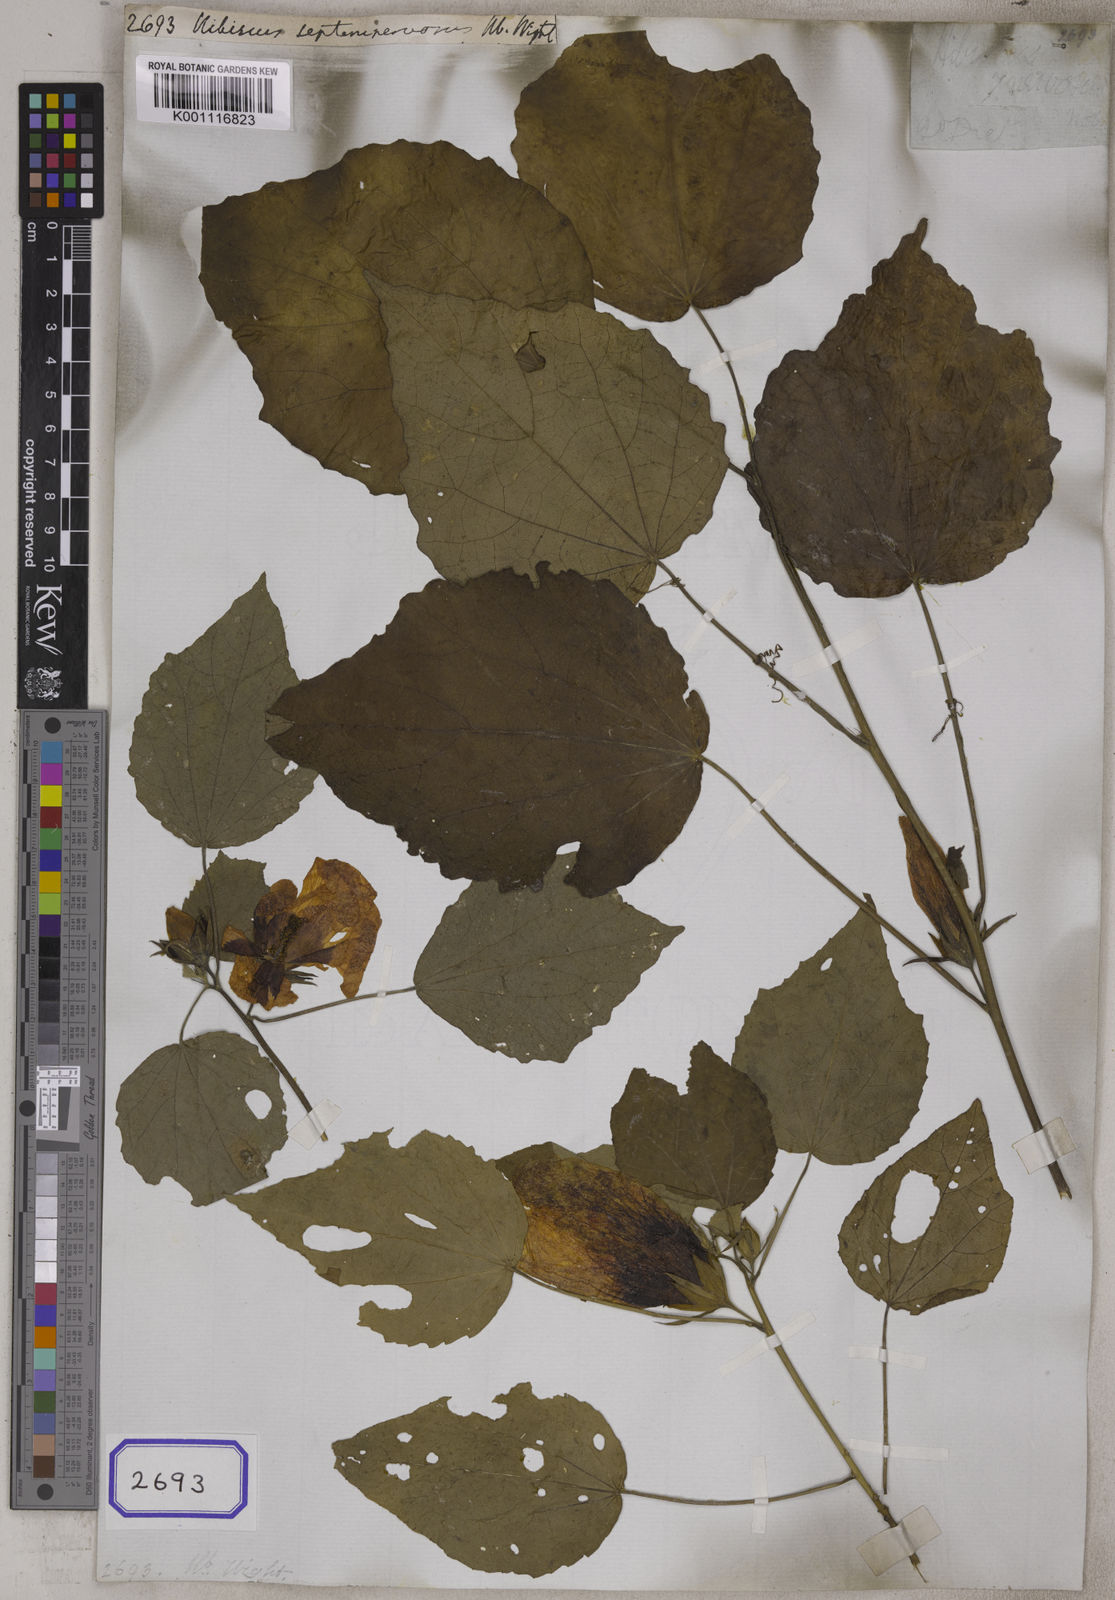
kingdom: Plantae
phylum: Tracheophyta
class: Magnoliopsida
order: Malvales
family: Malvaceae
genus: Hibiscus
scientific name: Hibiscus
